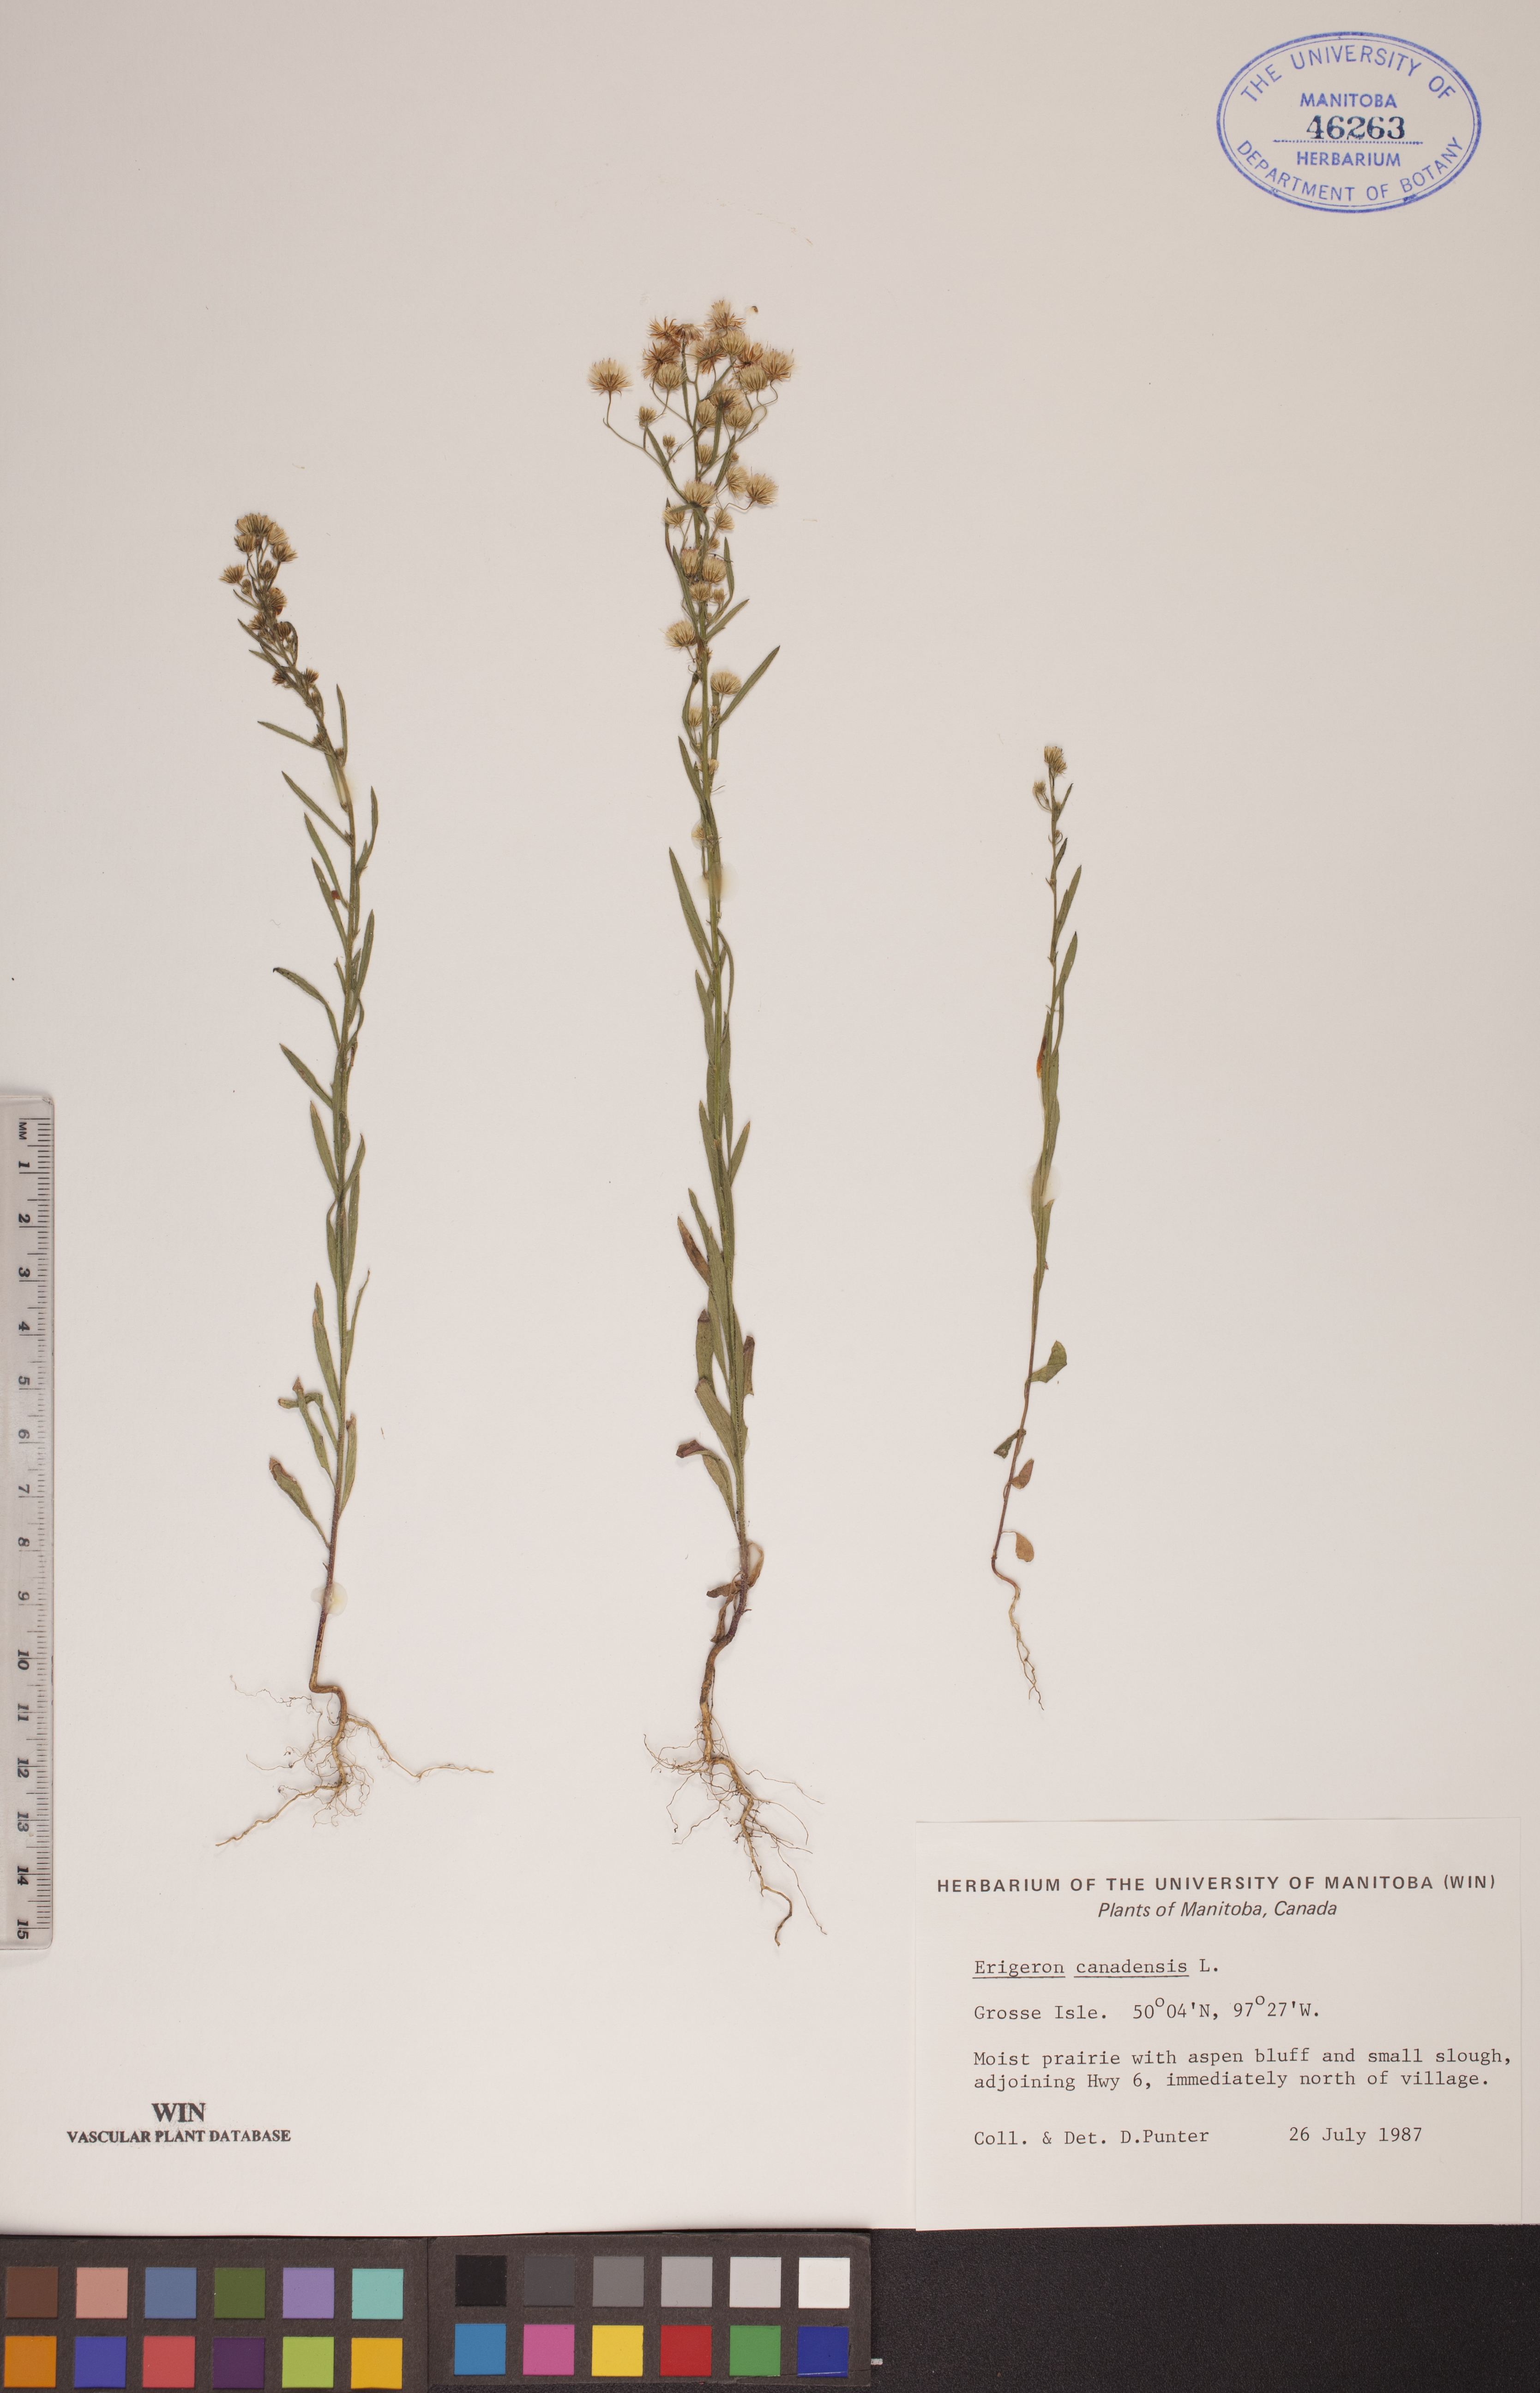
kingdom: Plantae
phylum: Tracheophyta
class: Magnoliopsida
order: Asterales
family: Asteraceae
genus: Erigeron
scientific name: Erigeron canadensis
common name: Canadian fleabane
